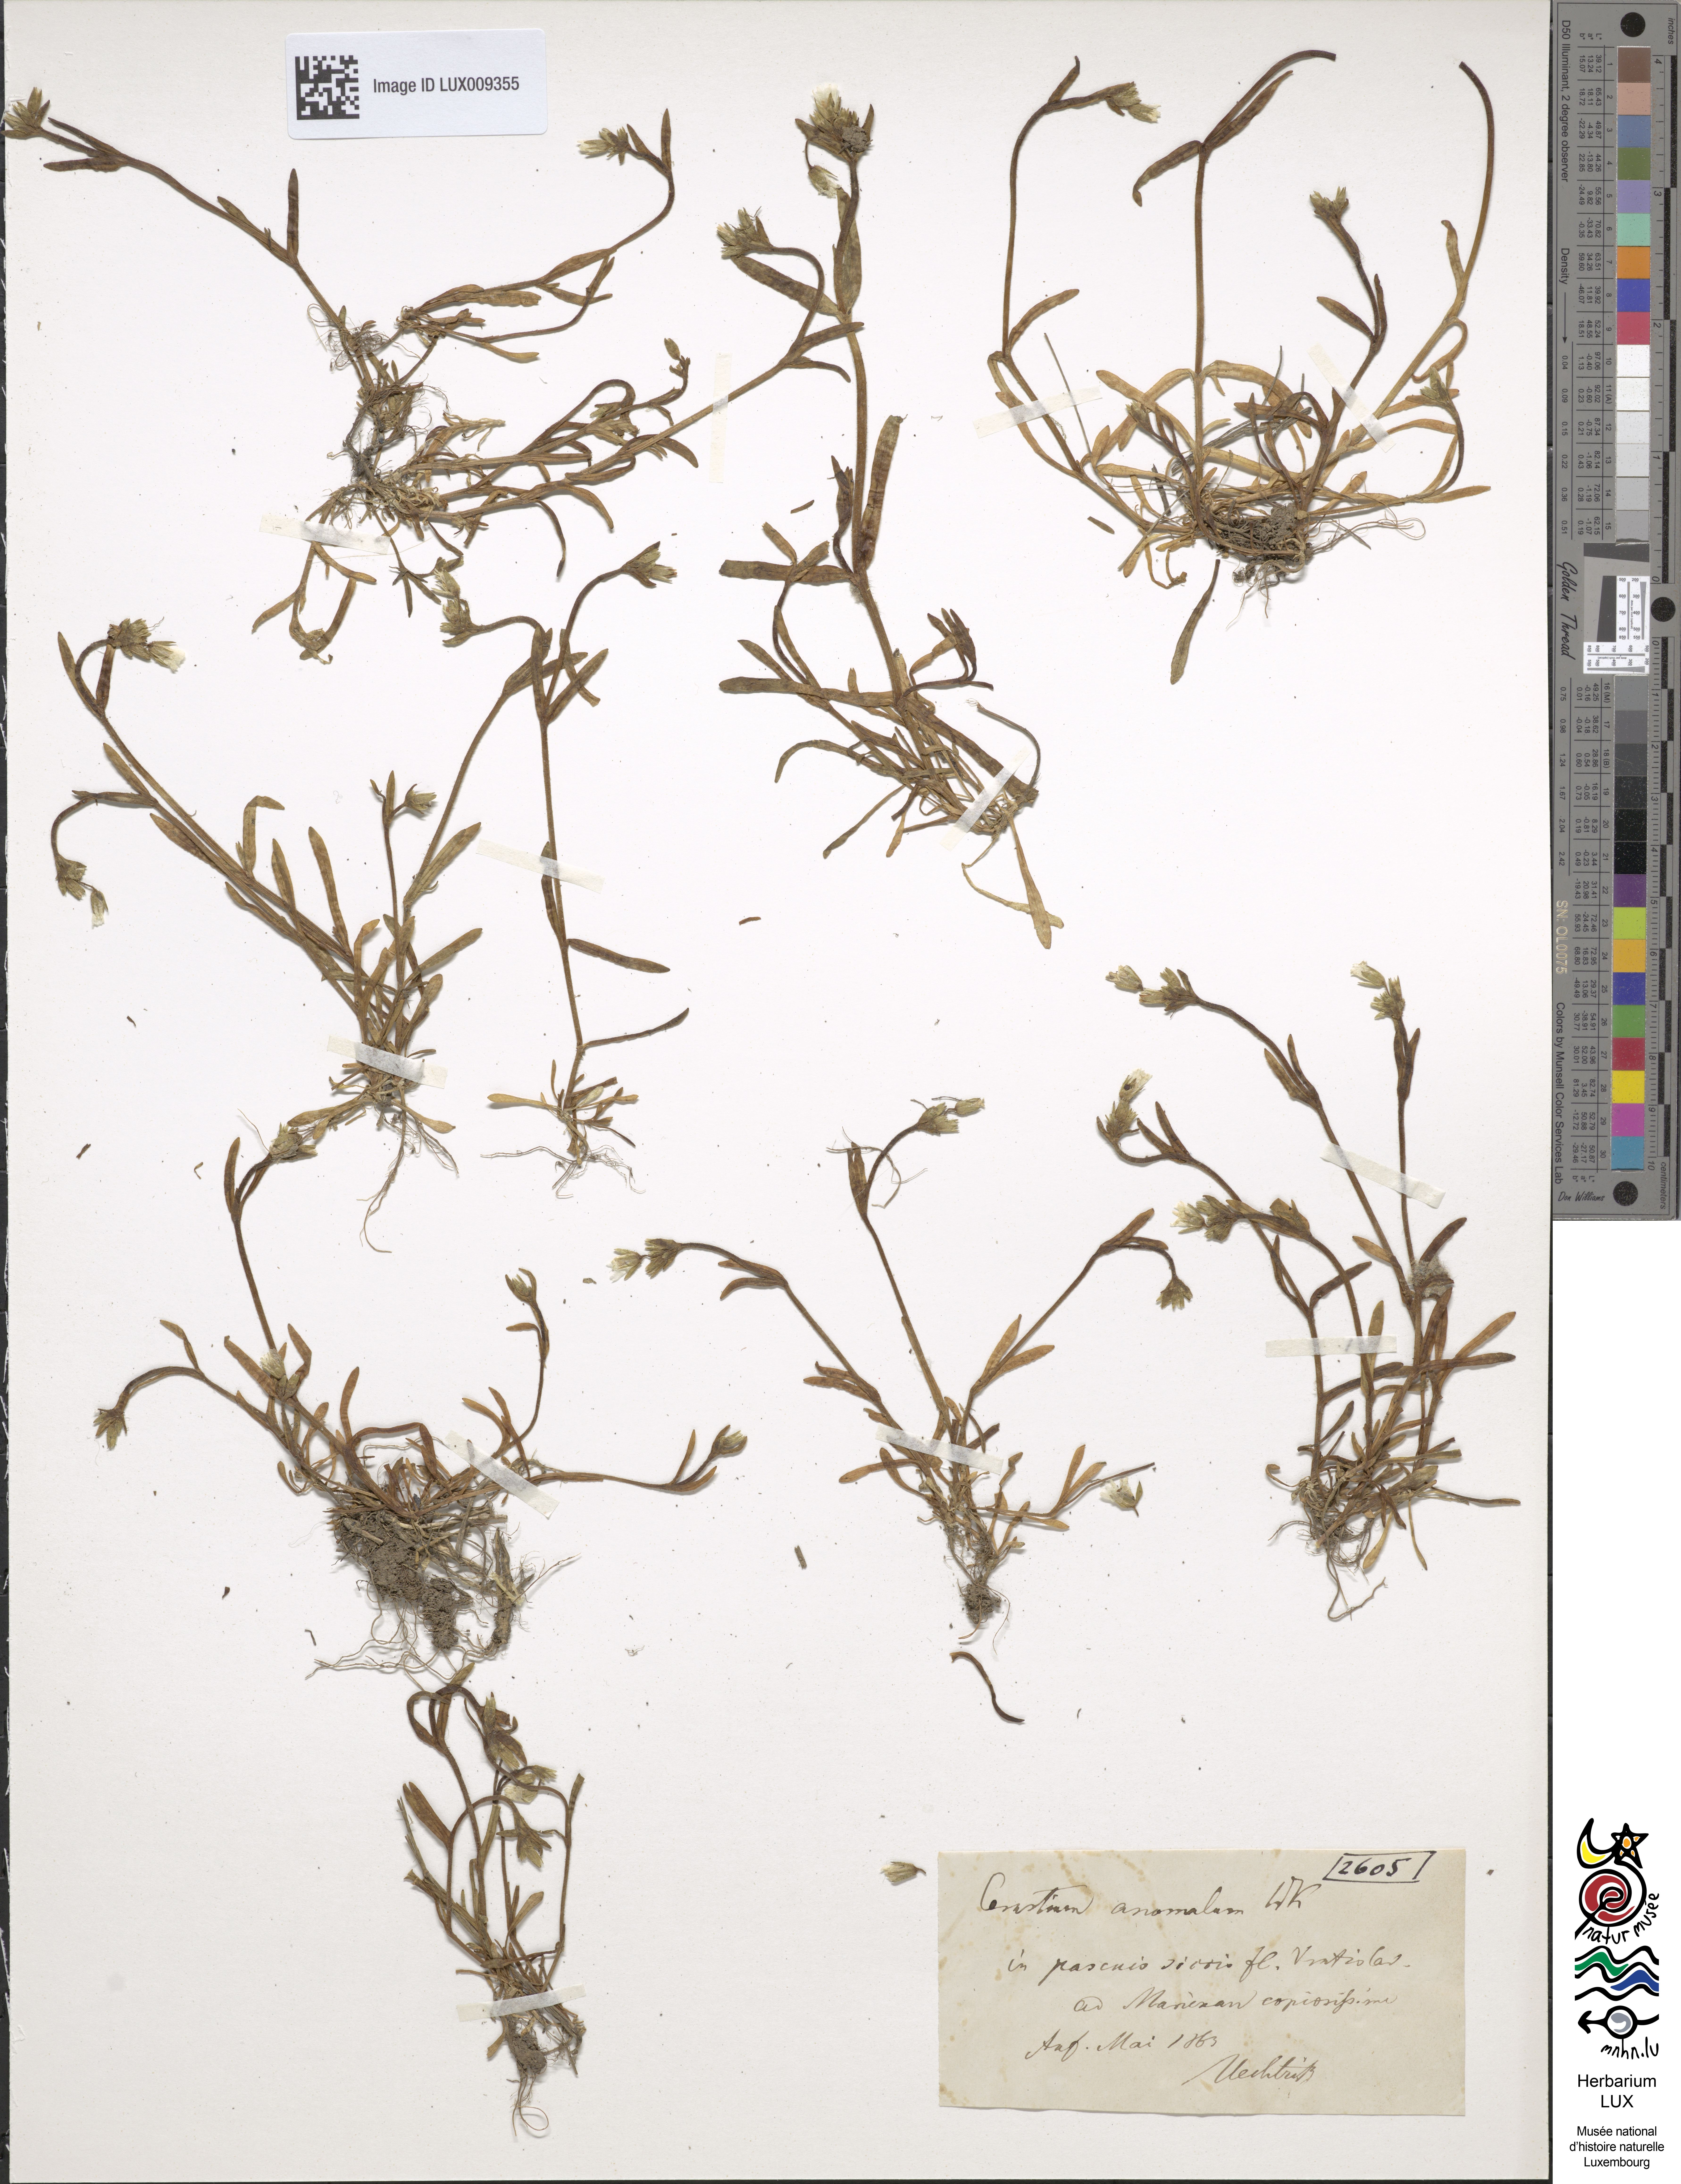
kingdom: Plantae
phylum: Tracheophyta
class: Magnoliopsida
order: Caryophyllales
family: Caryophyllaceae
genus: Dichodon
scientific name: Dichodon viscidum
